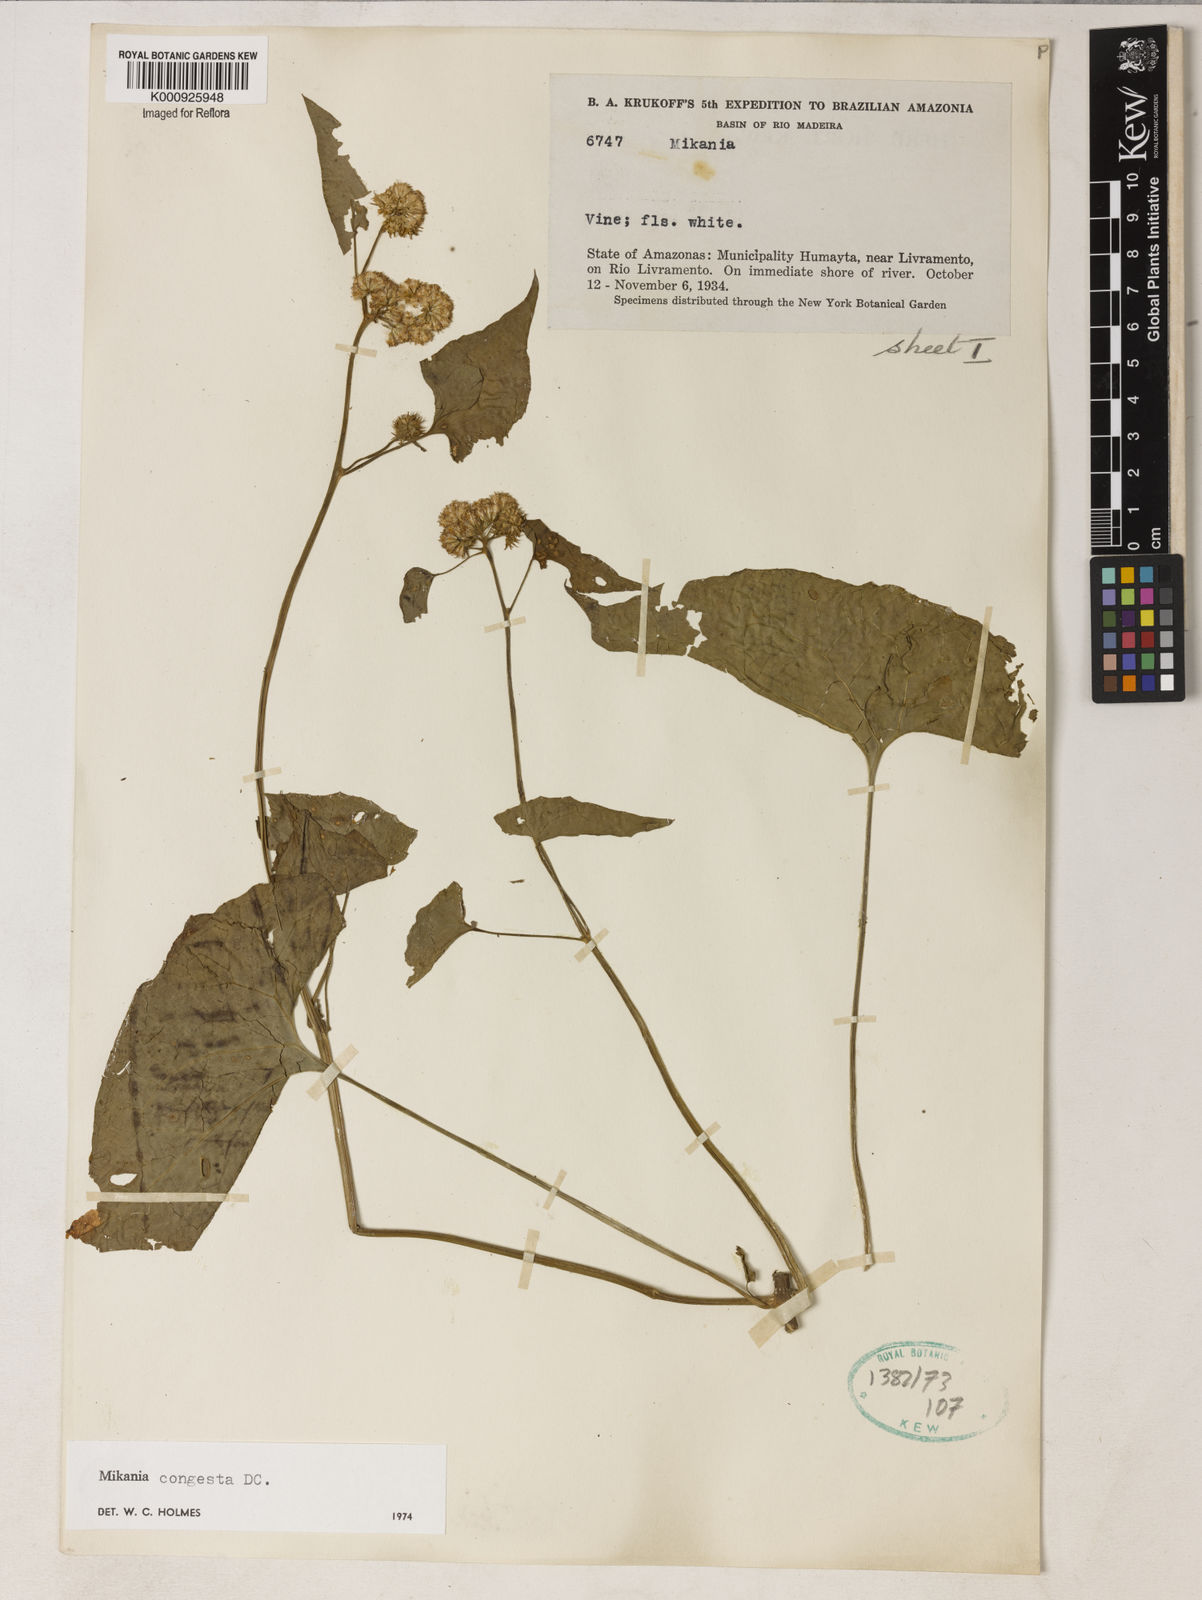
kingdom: Plantae
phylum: Tracheophyta
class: Magnoliopsida
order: Asterales
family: Asteraceae
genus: Mikania
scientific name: Mikania congesta
